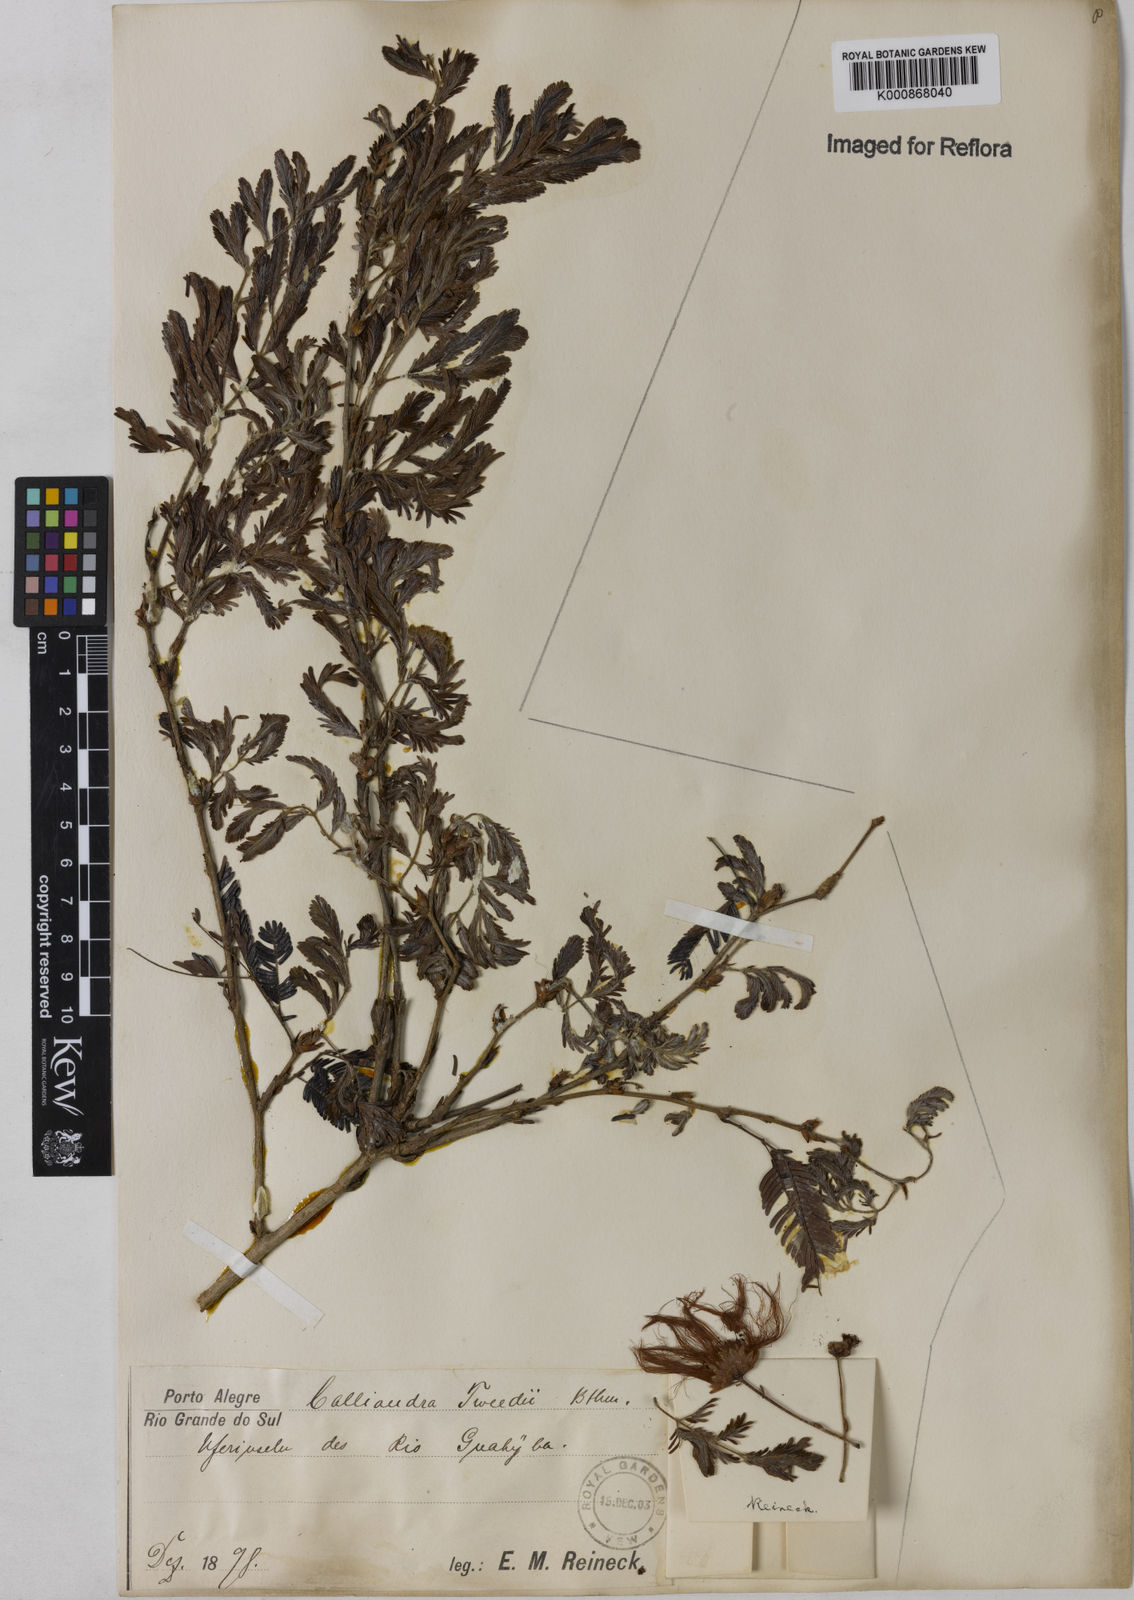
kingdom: Plantae
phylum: Tracheophyta
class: Magnoliopsida
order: Fabales
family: Fabaceae
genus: Calliandra
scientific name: Calliandra tweediei
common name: Mexican flamebush
